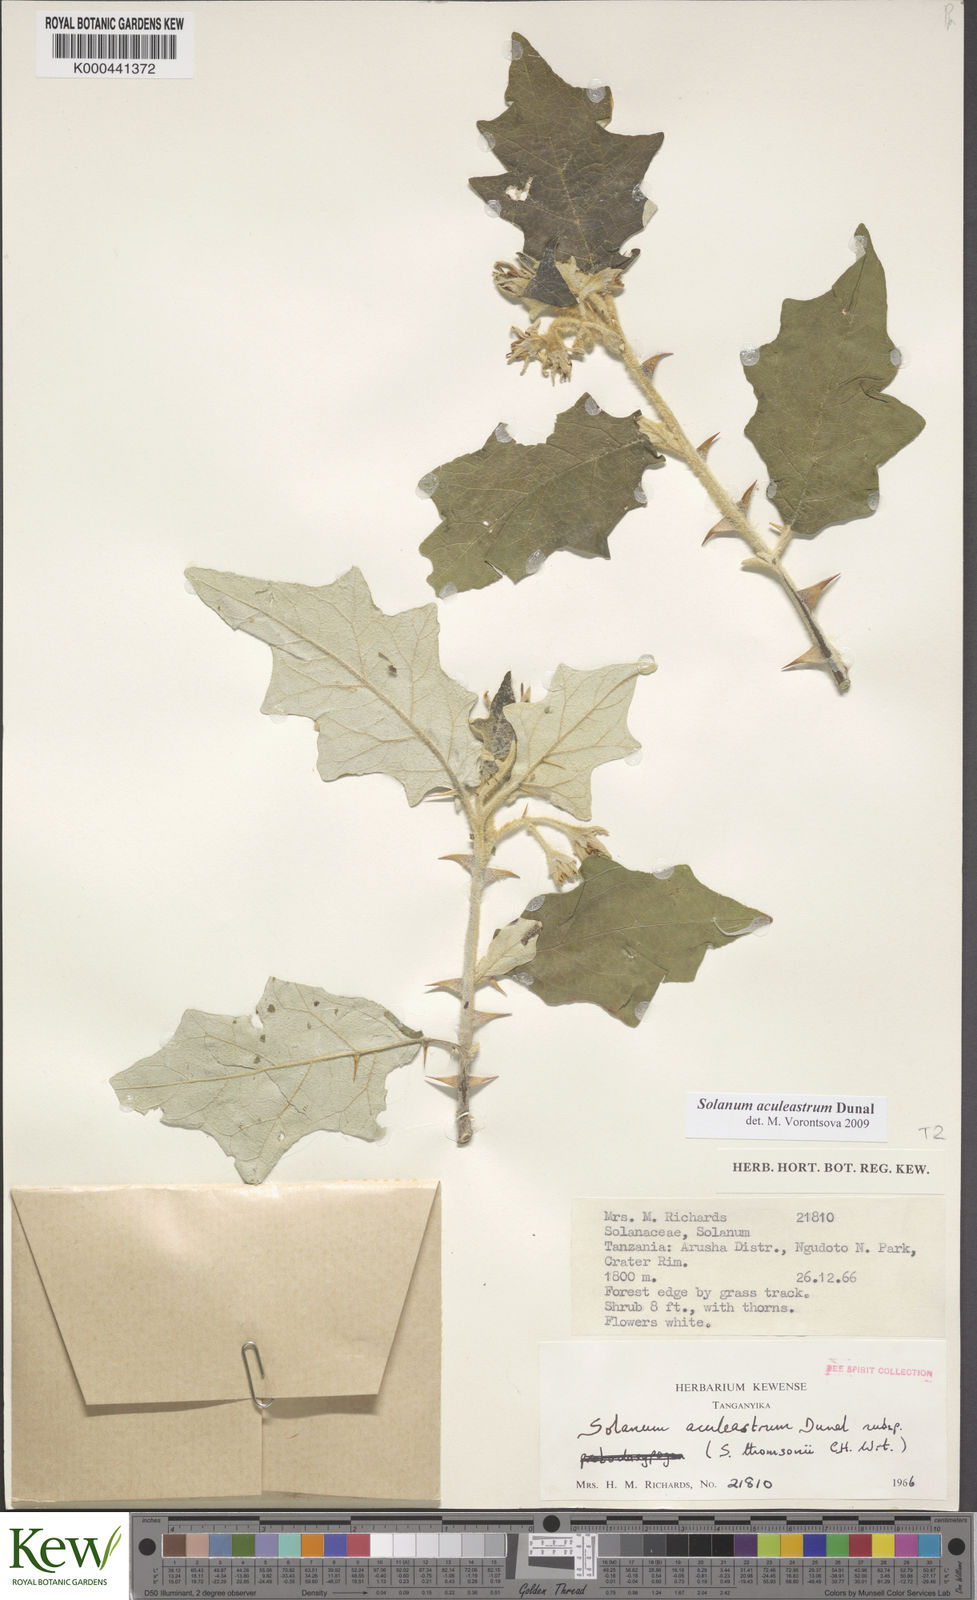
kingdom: Plantae
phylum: Tracheophyta
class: Magnoliopsida
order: Solanales
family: Solanaceae
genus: Solanum
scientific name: Solanum aculeastrum
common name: Goat bitter-apple
